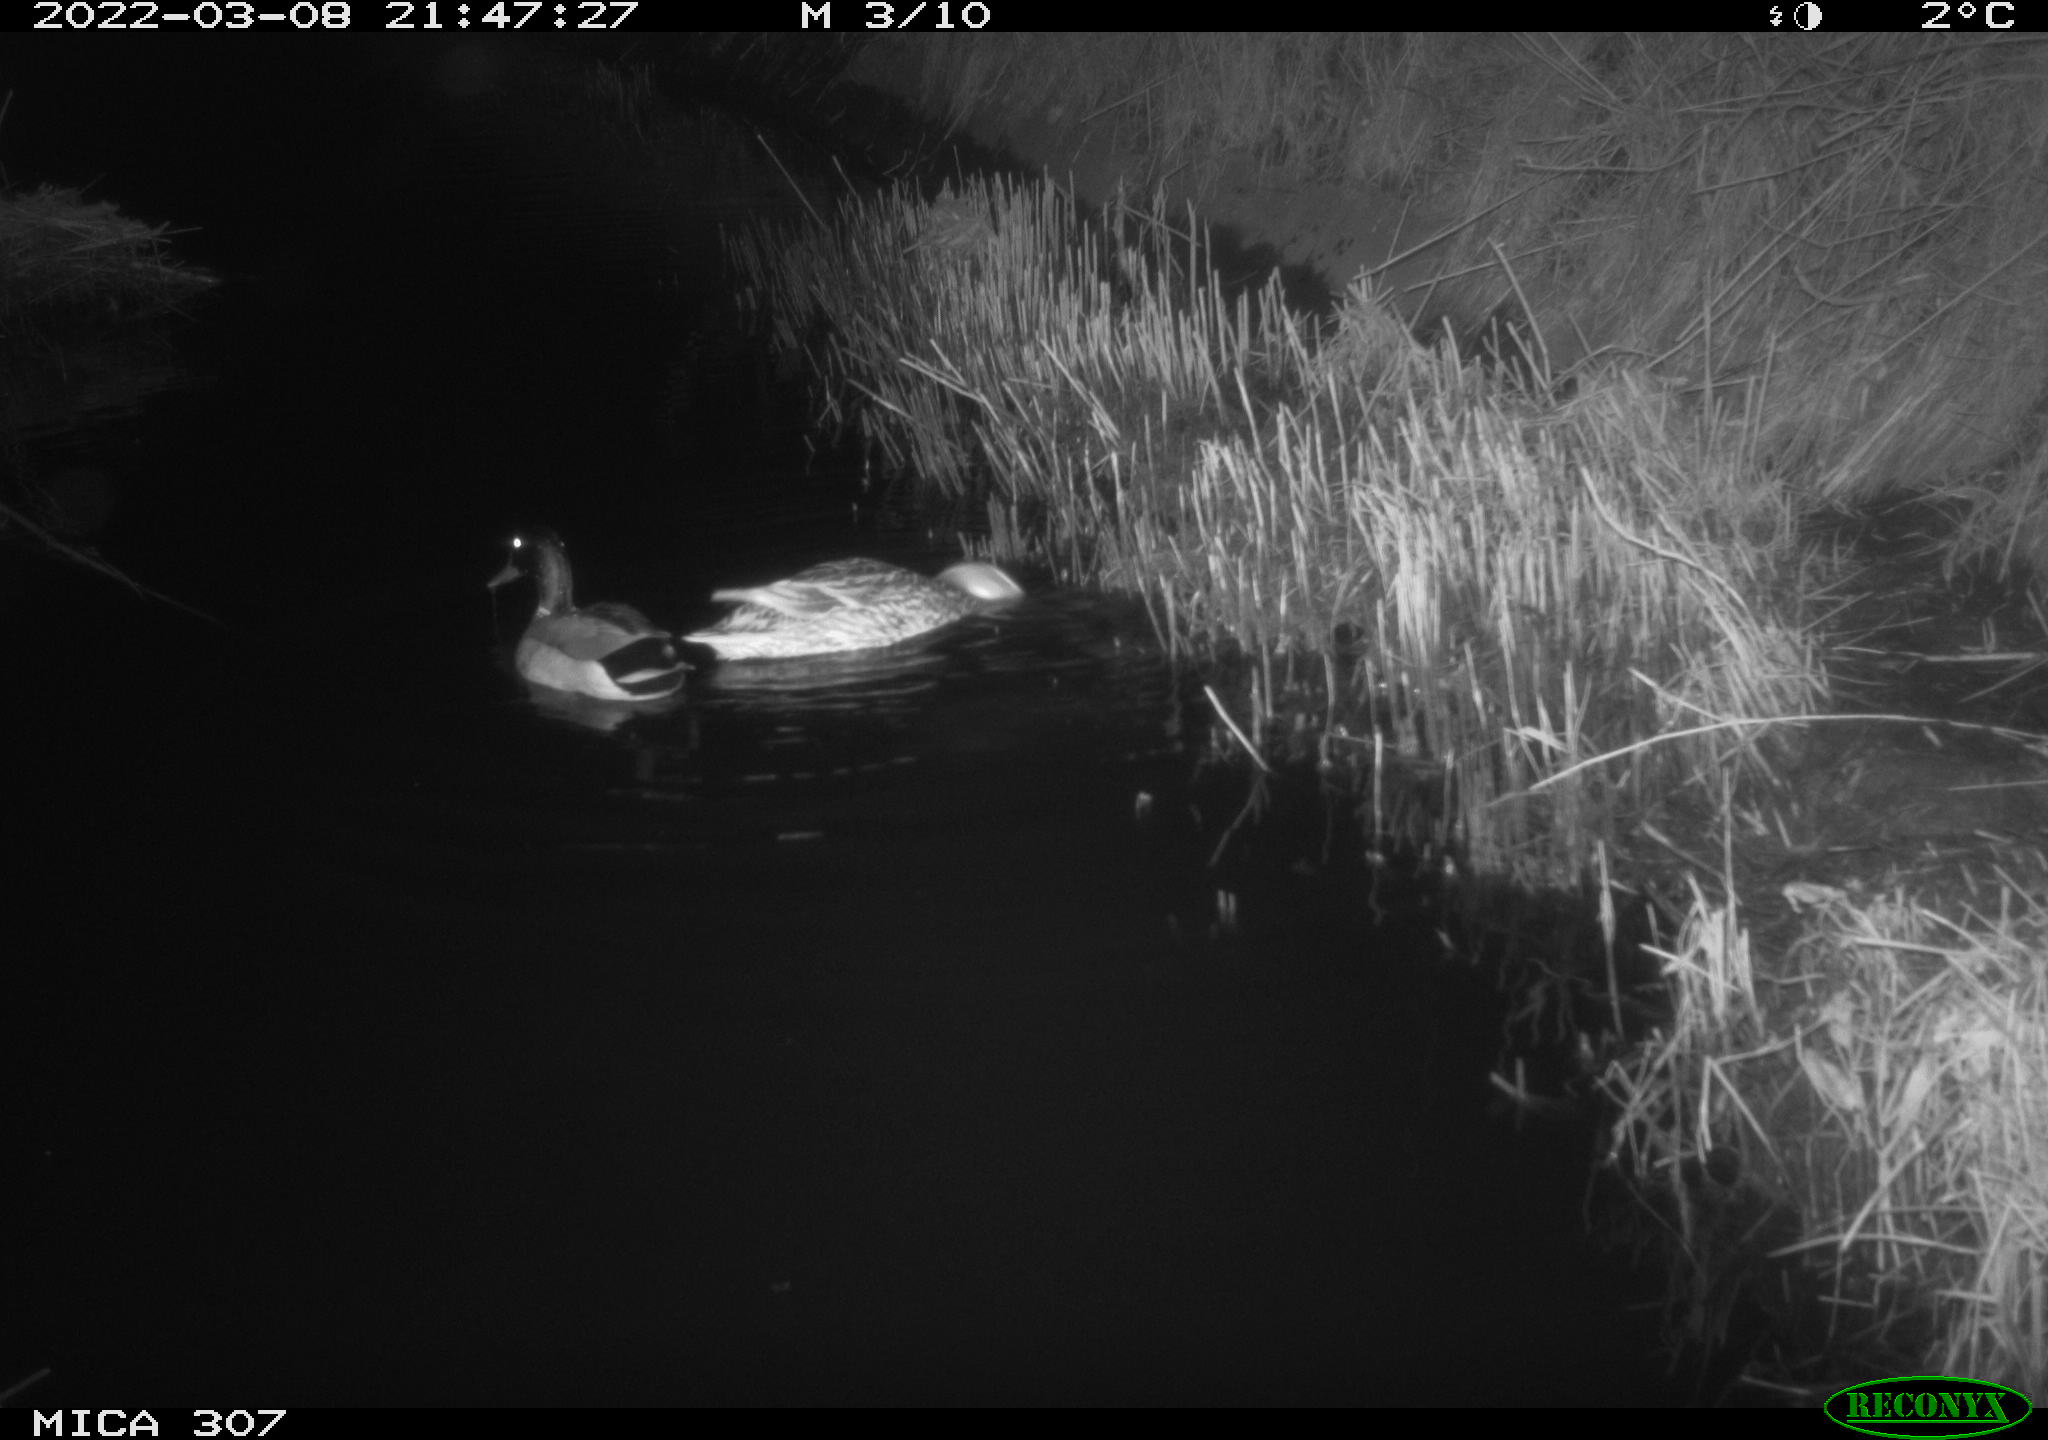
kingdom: Animalia
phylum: Chordata
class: Aves
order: Anseriformes
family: Anatidae
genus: Anas
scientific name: Anas platyrhynchos
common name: Mallard
